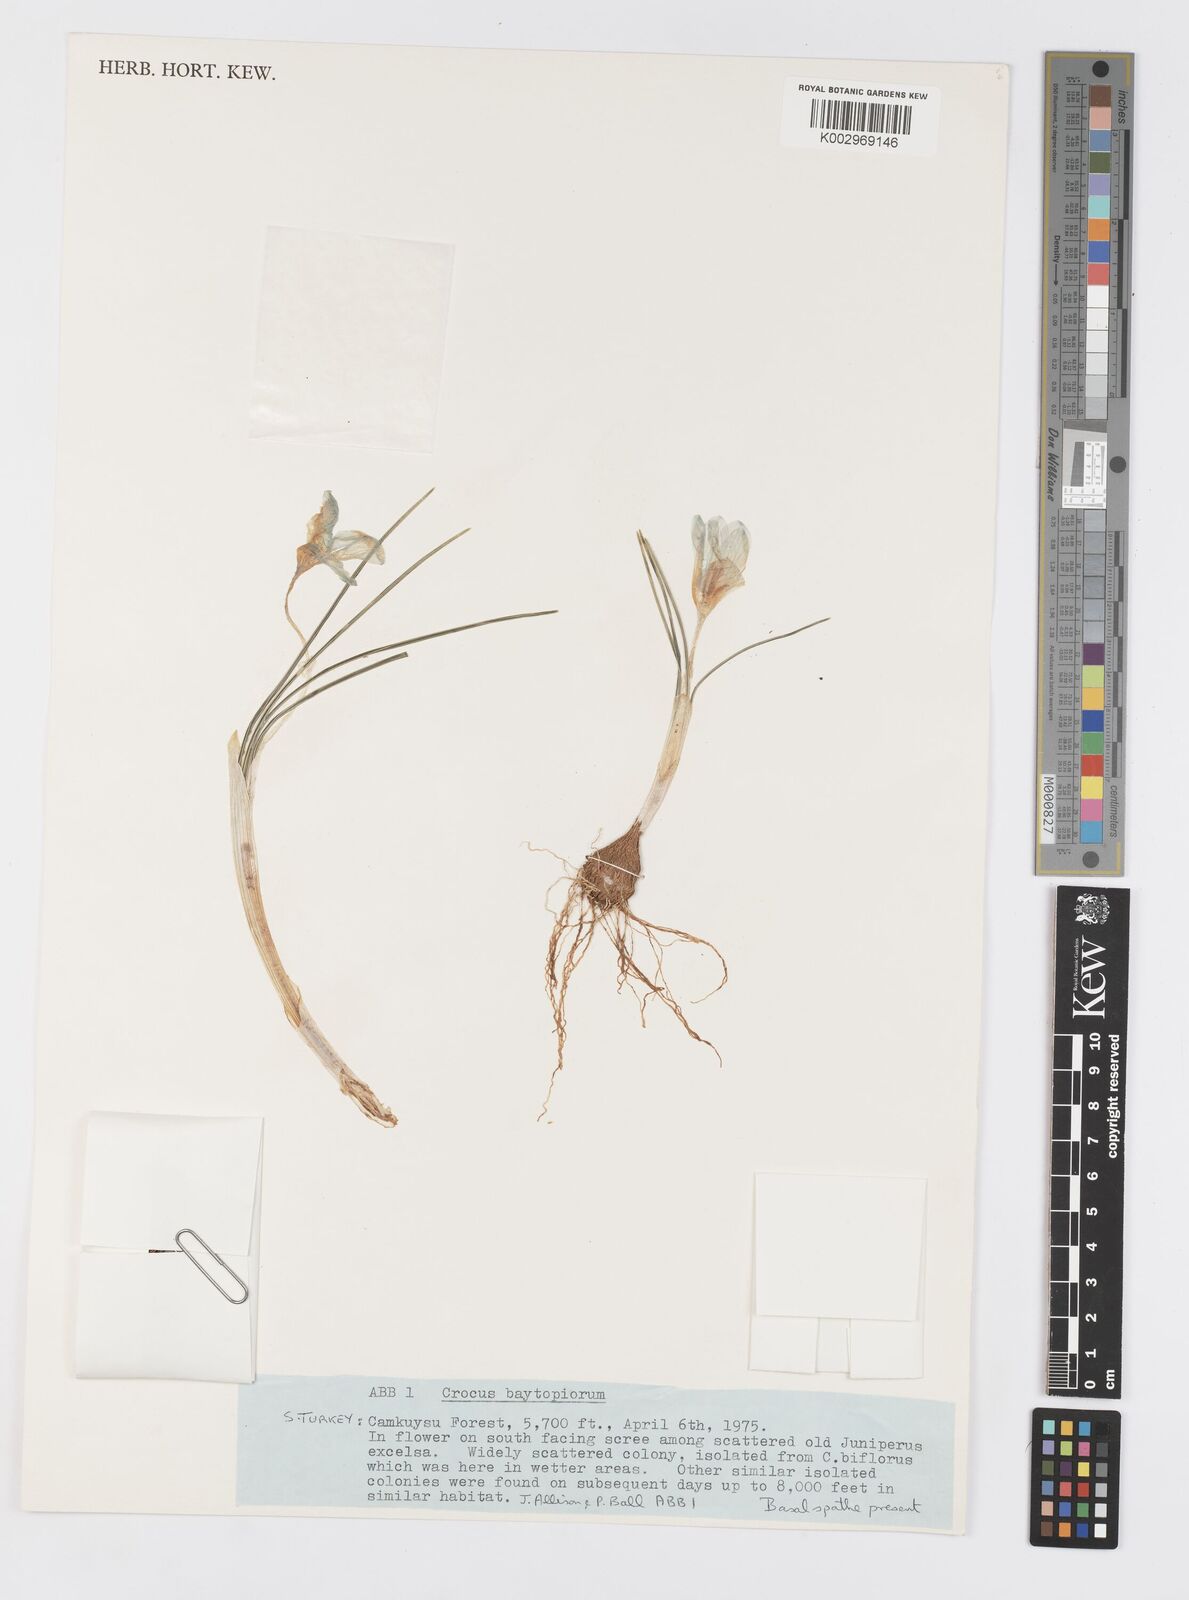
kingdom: Plantae
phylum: Tracheophyta
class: Liliopsida
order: Asparagales
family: Iridaceae
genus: Crocus
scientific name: Crocus baytopiorum
